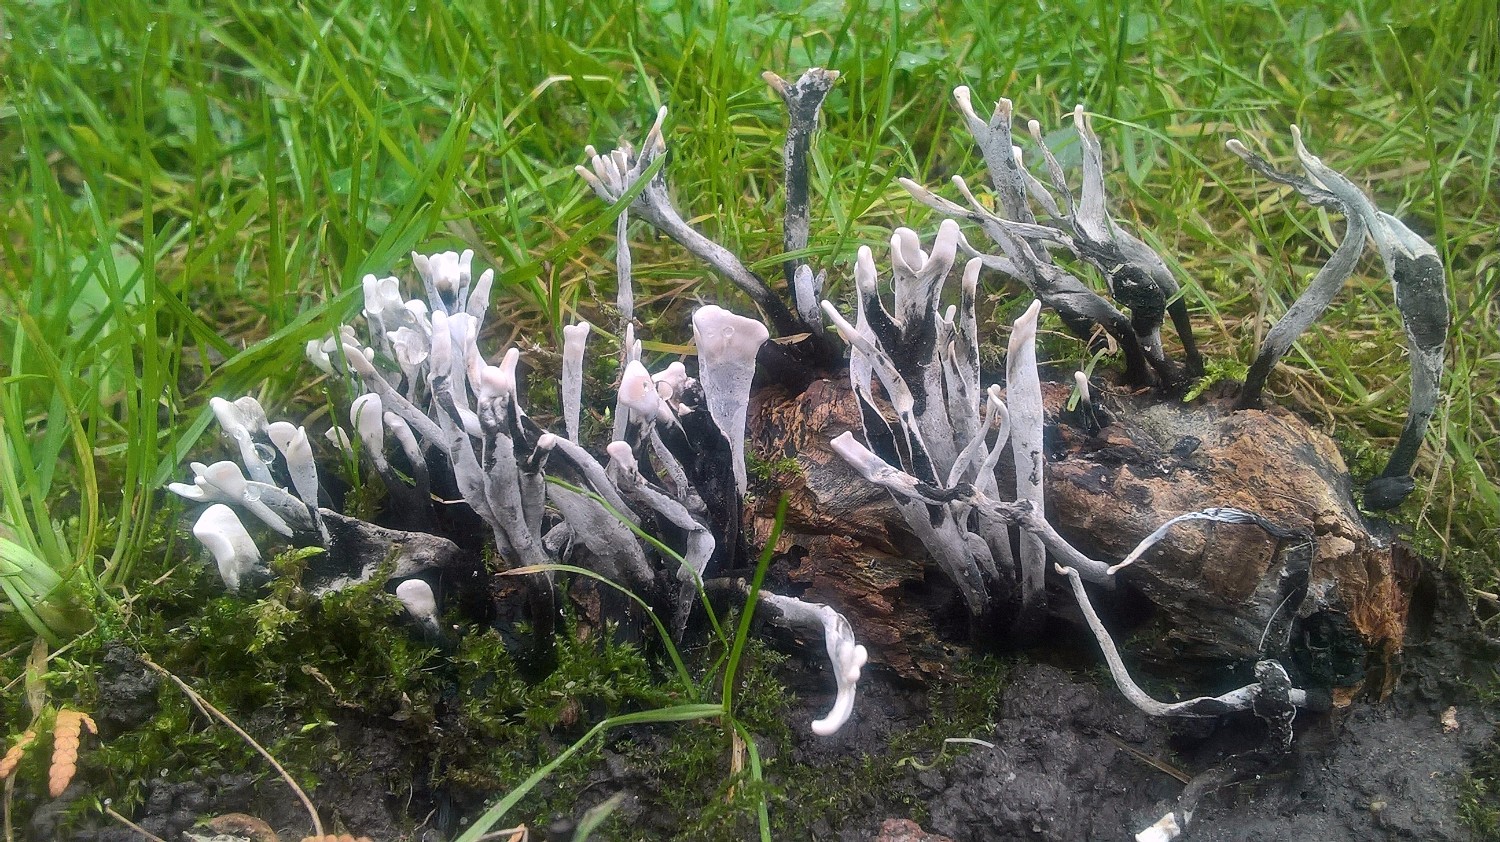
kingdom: Fungi
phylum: Ascomycota
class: Sordariomycetes
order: Xylariales
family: Xylariaceae
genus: Xylaria
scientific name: Xylaria hypoxylon
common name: grenet stødsvamp
